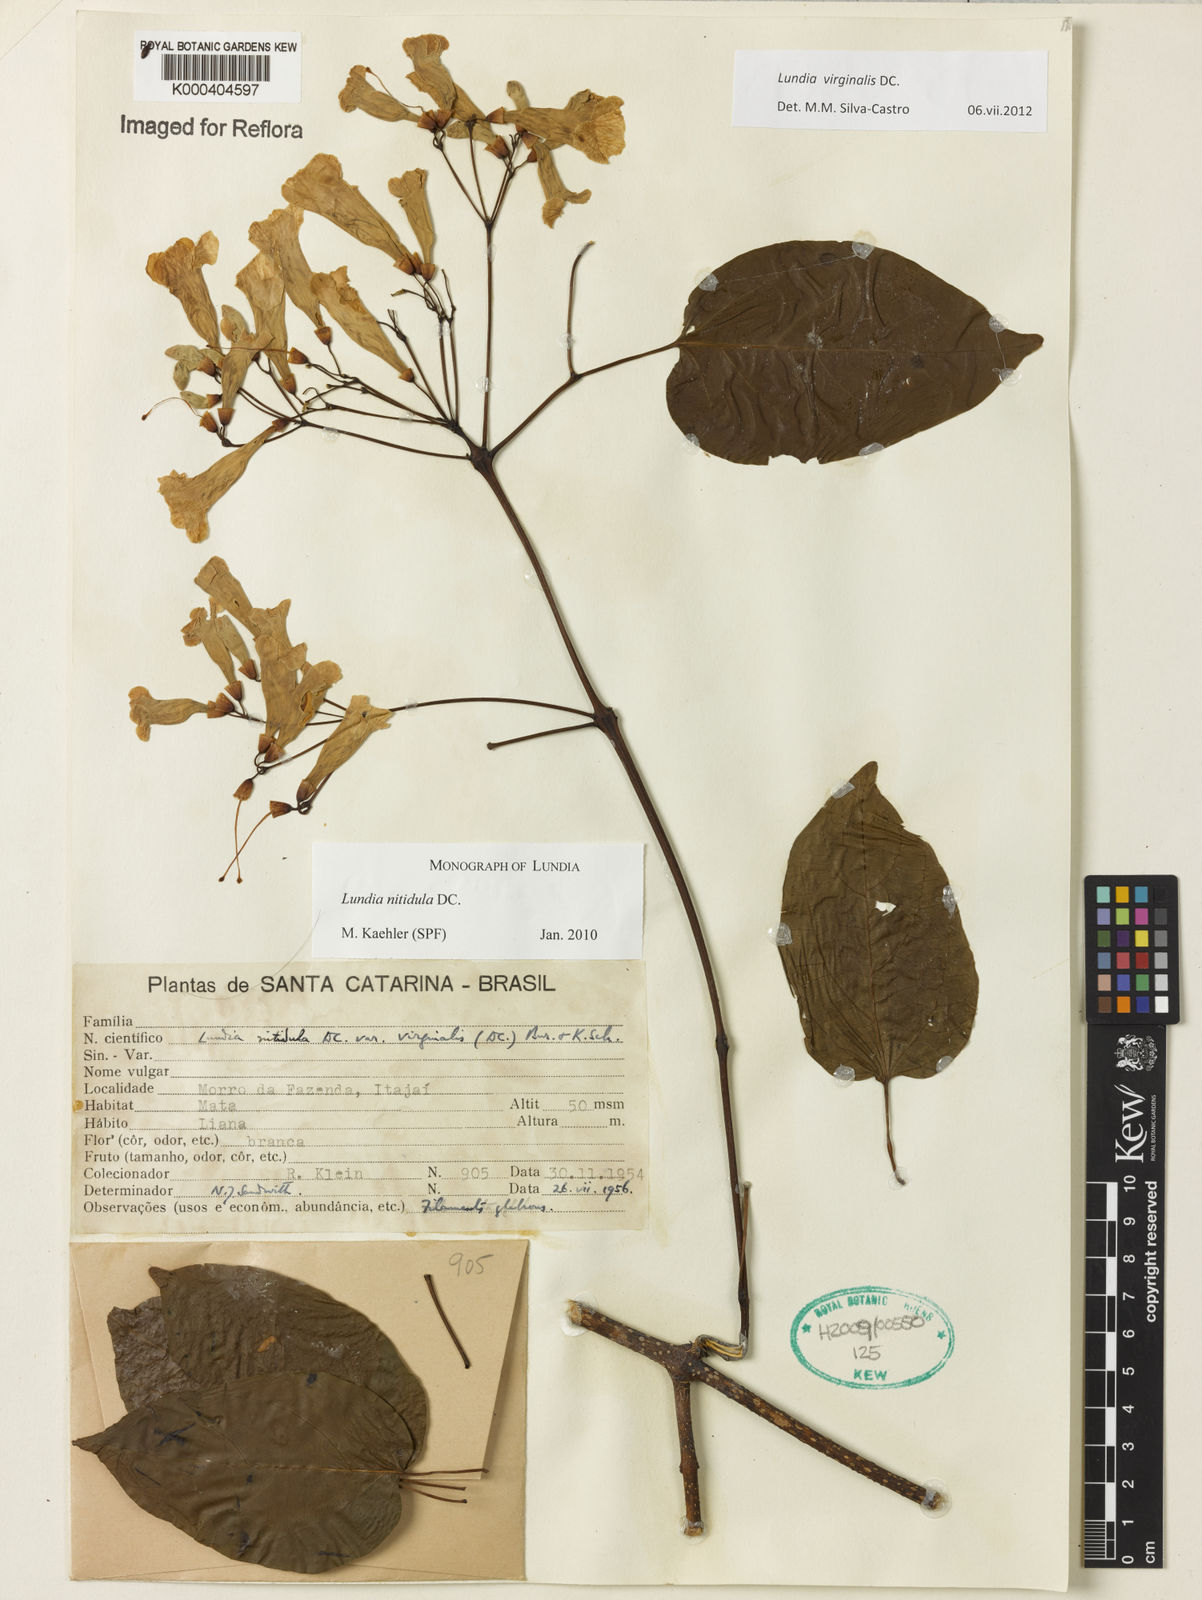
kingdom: Plantae
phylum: Tracheophyta
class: Magnoliopsida
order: Lamiales
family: Bignoniaceae
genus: Lundia
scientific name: Lundia virginalis
